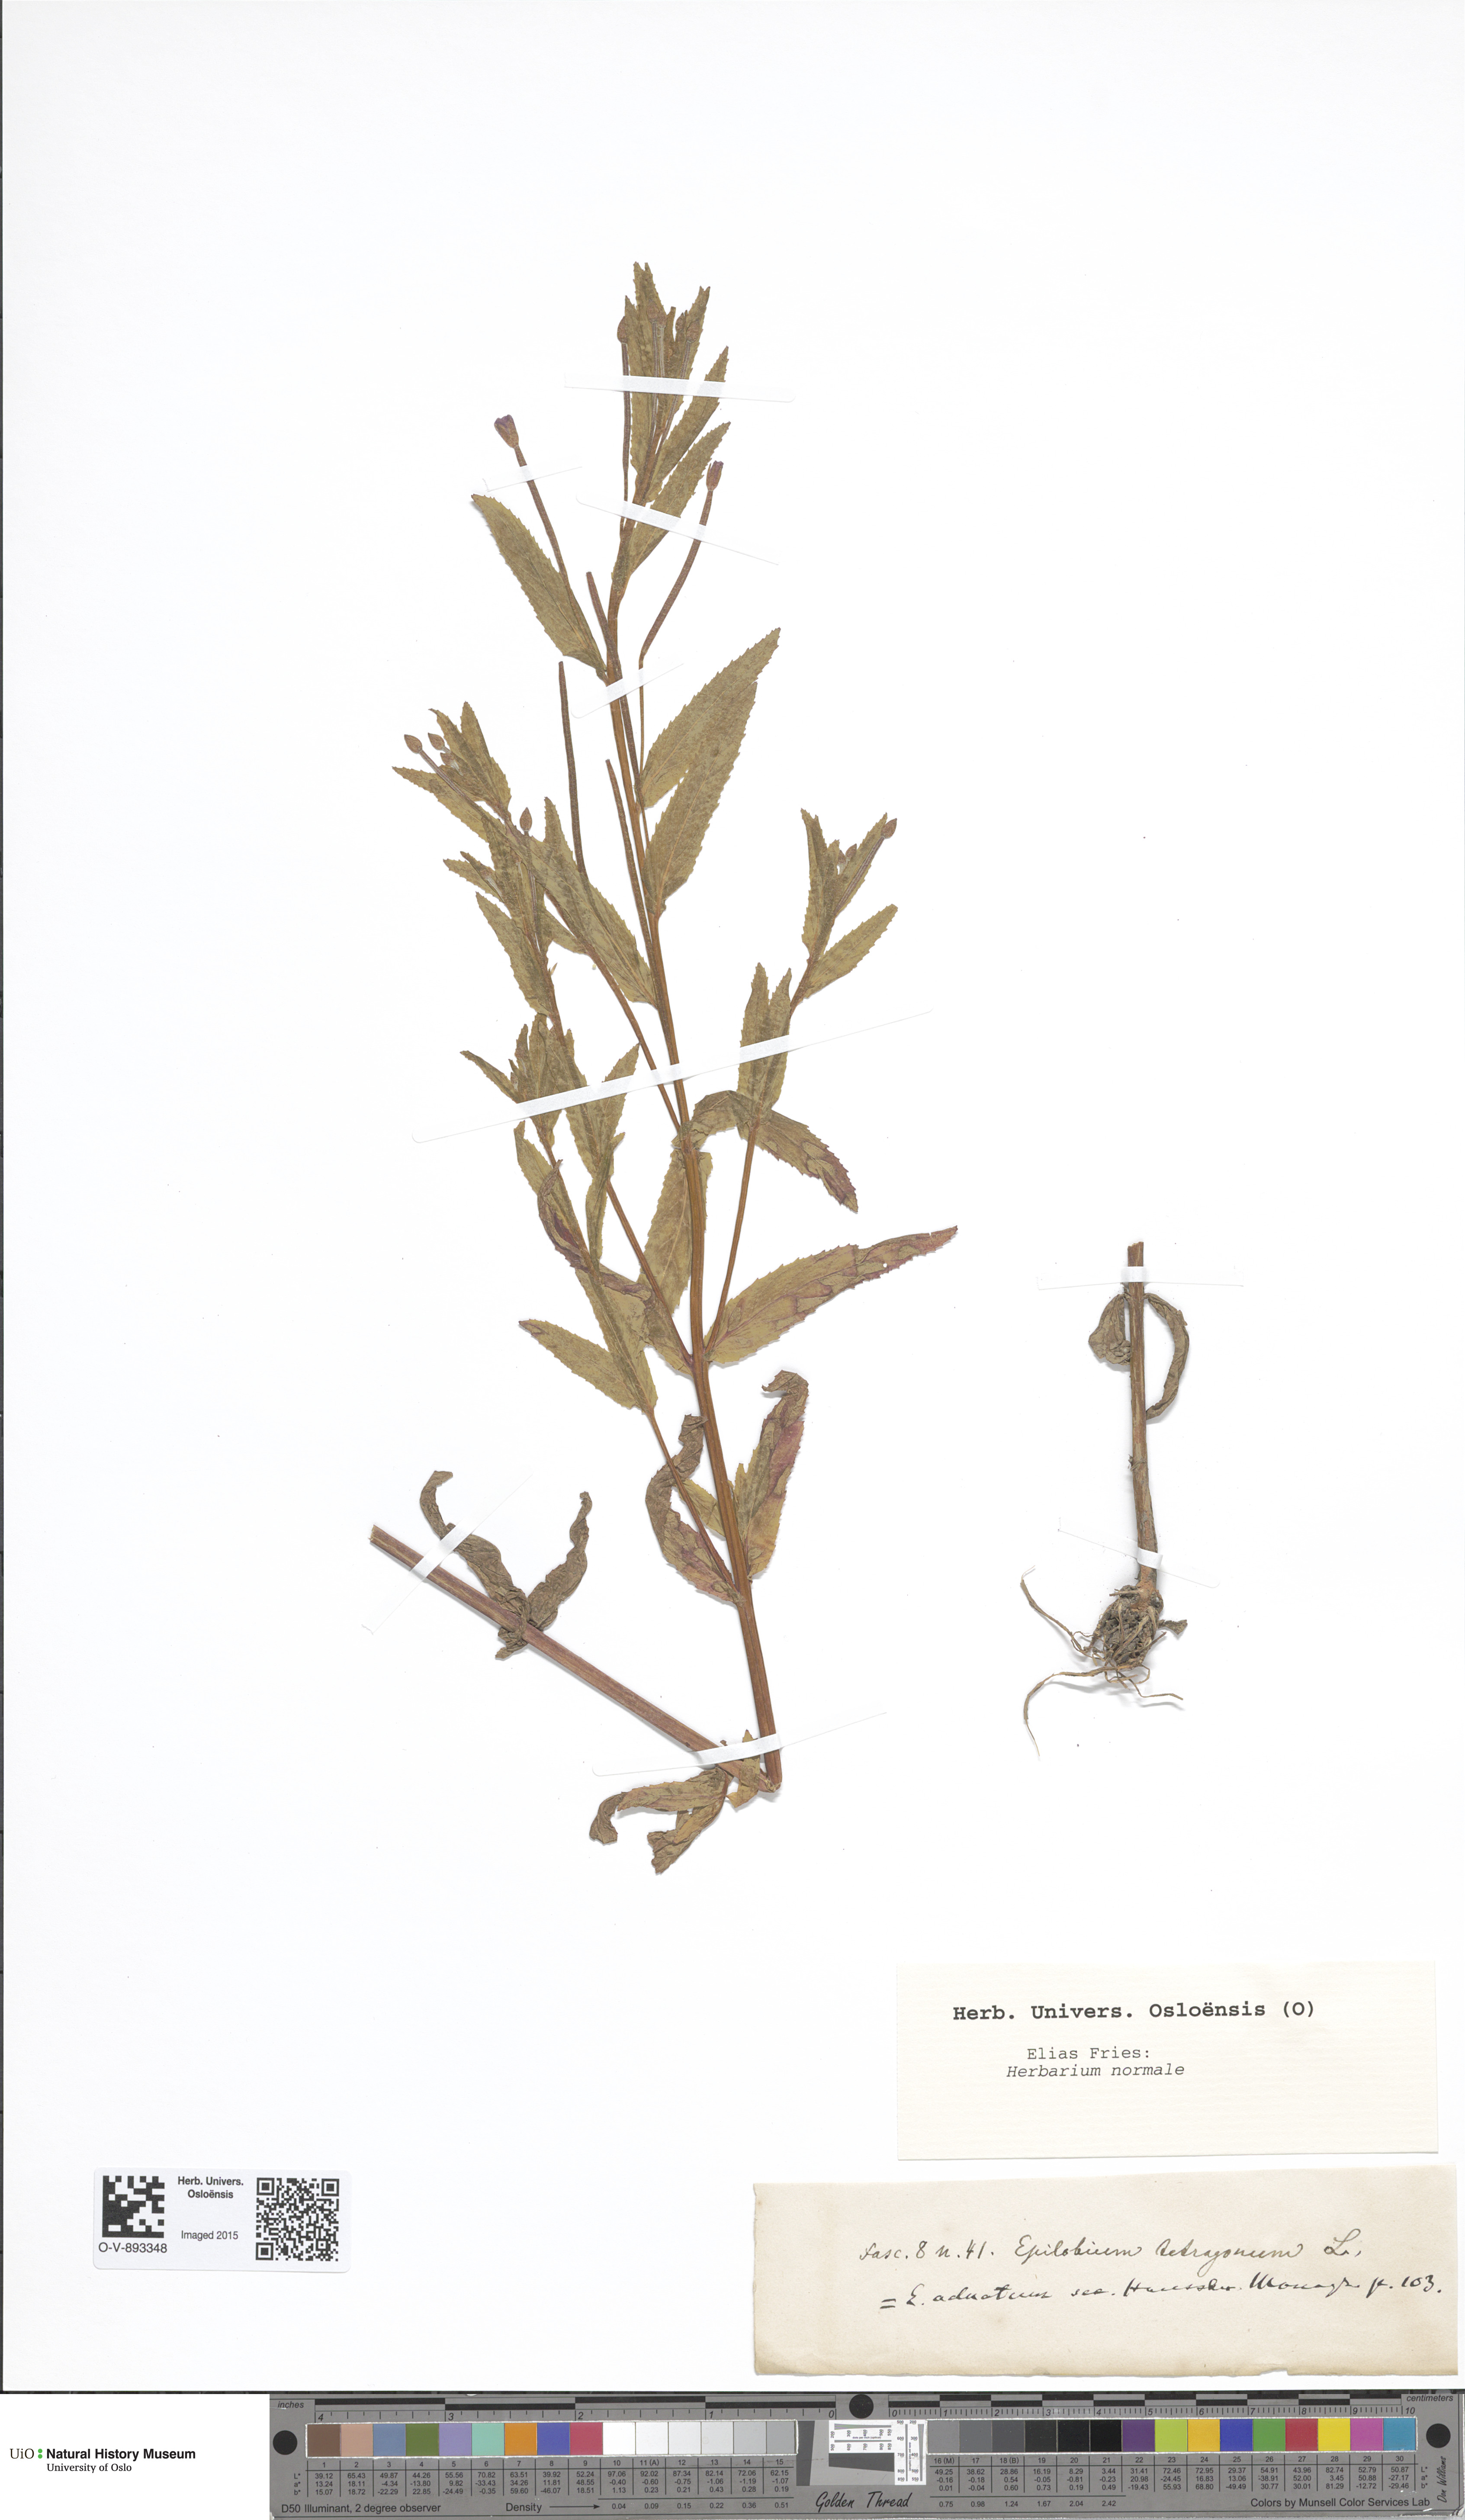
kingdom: Plantae
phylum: Tracheophyta
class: Magnoliopsida
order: Myrtales
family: Onagraceae
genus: Epilobium
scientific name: Epilobium tetragonum
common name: Square-stemmed willowherb
